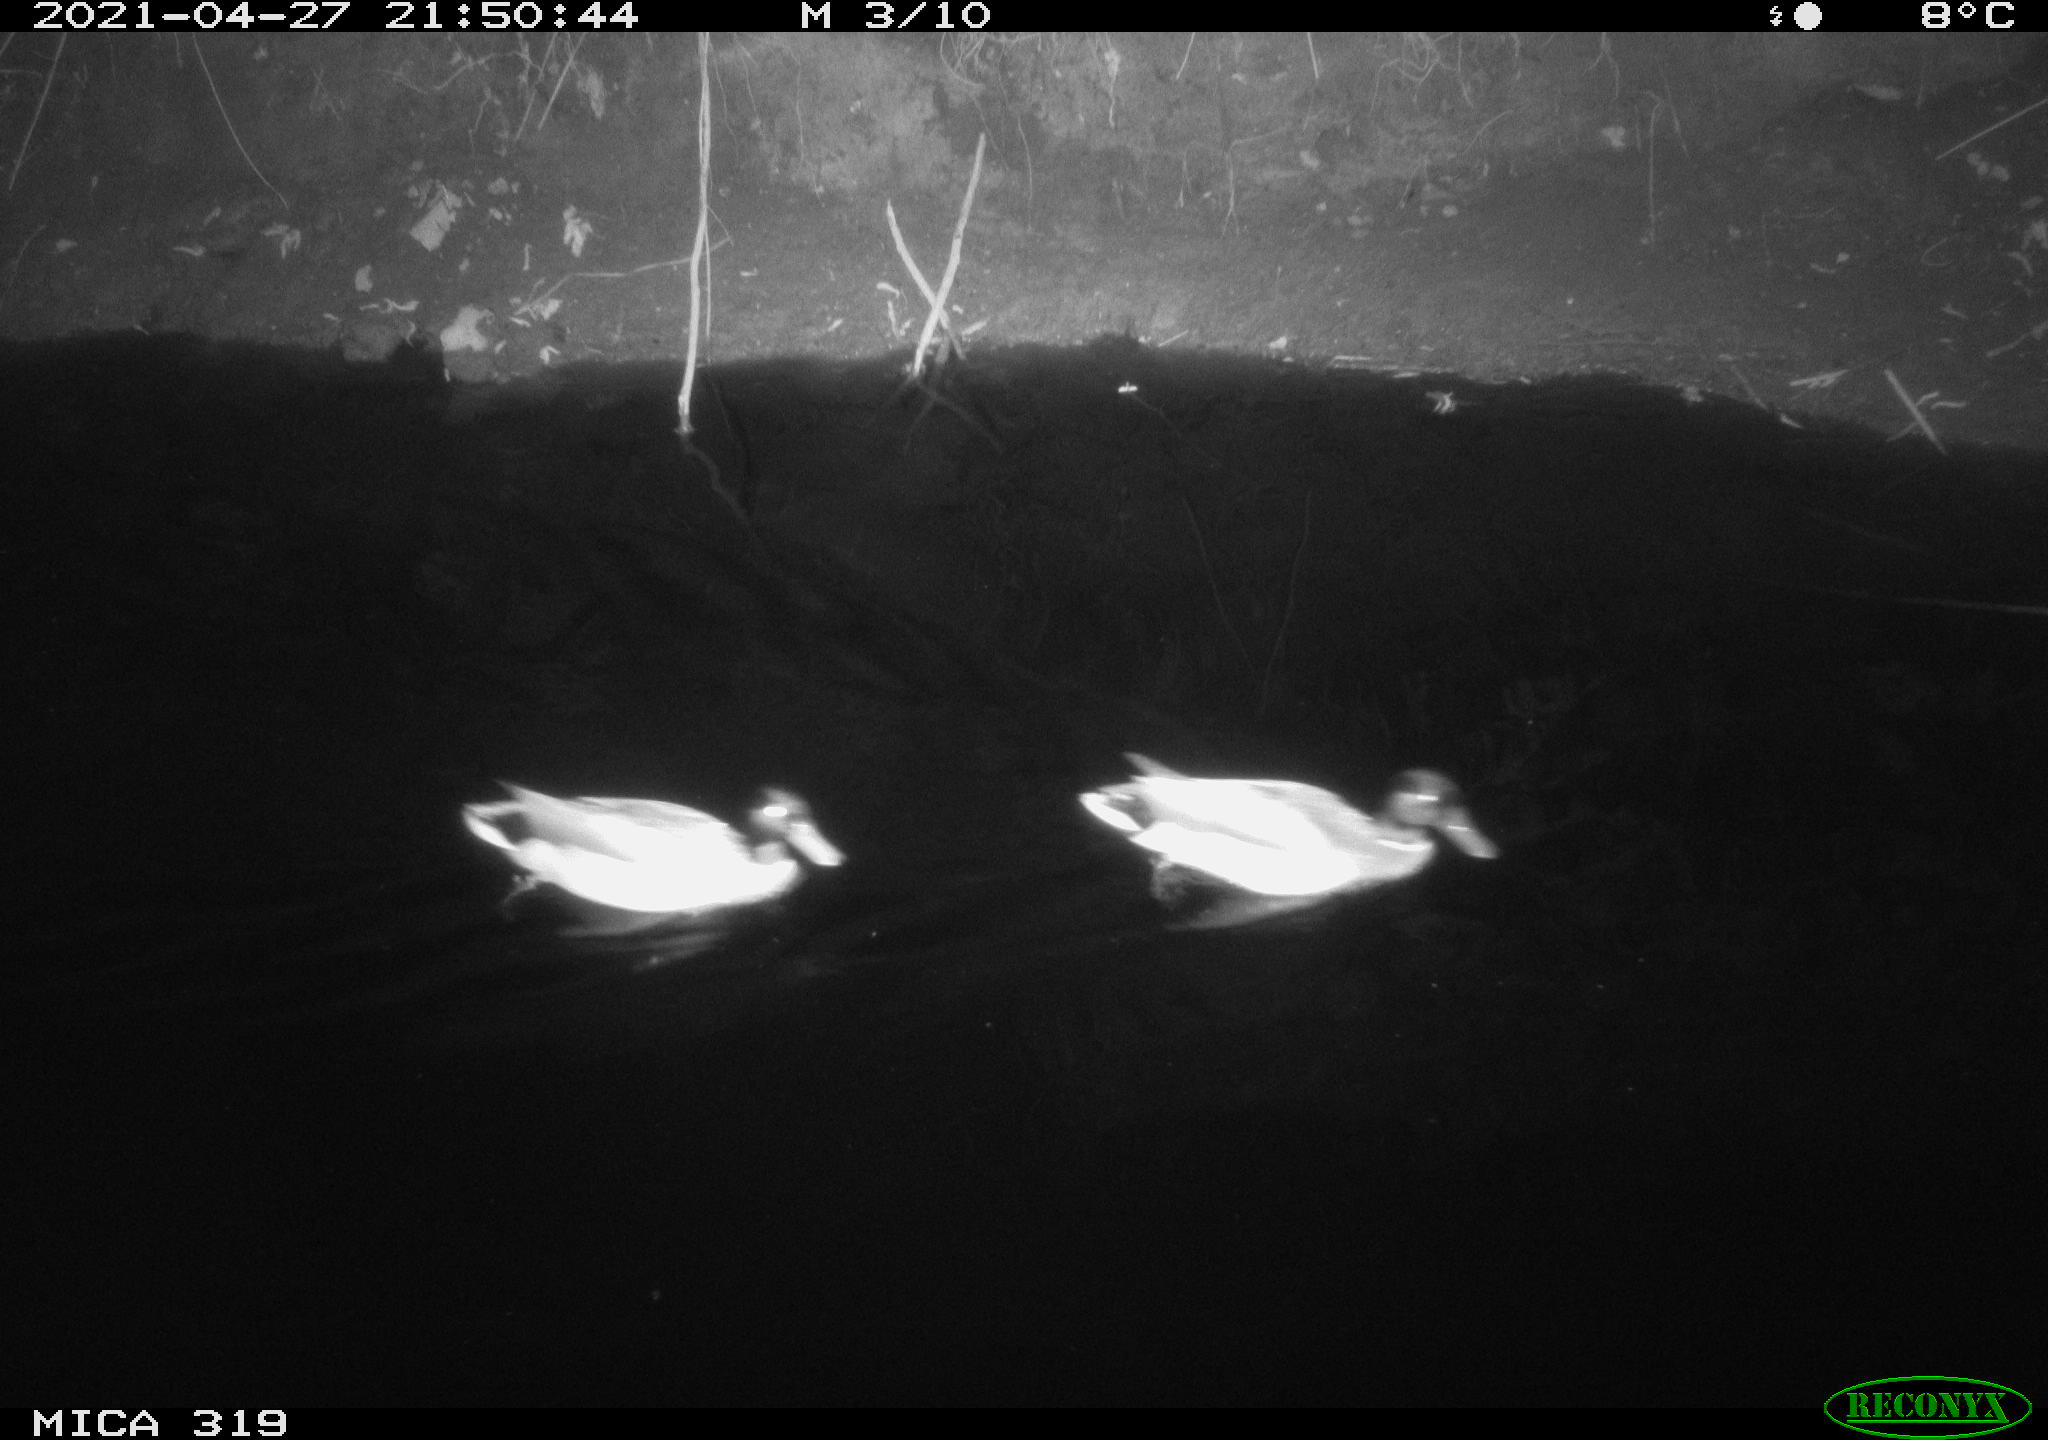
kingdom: Animalia
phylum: Chordata
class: Aves
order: Anseriformes
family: Anatidae
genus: Anas
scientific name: Anas platyrhynchos
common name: Mallard
